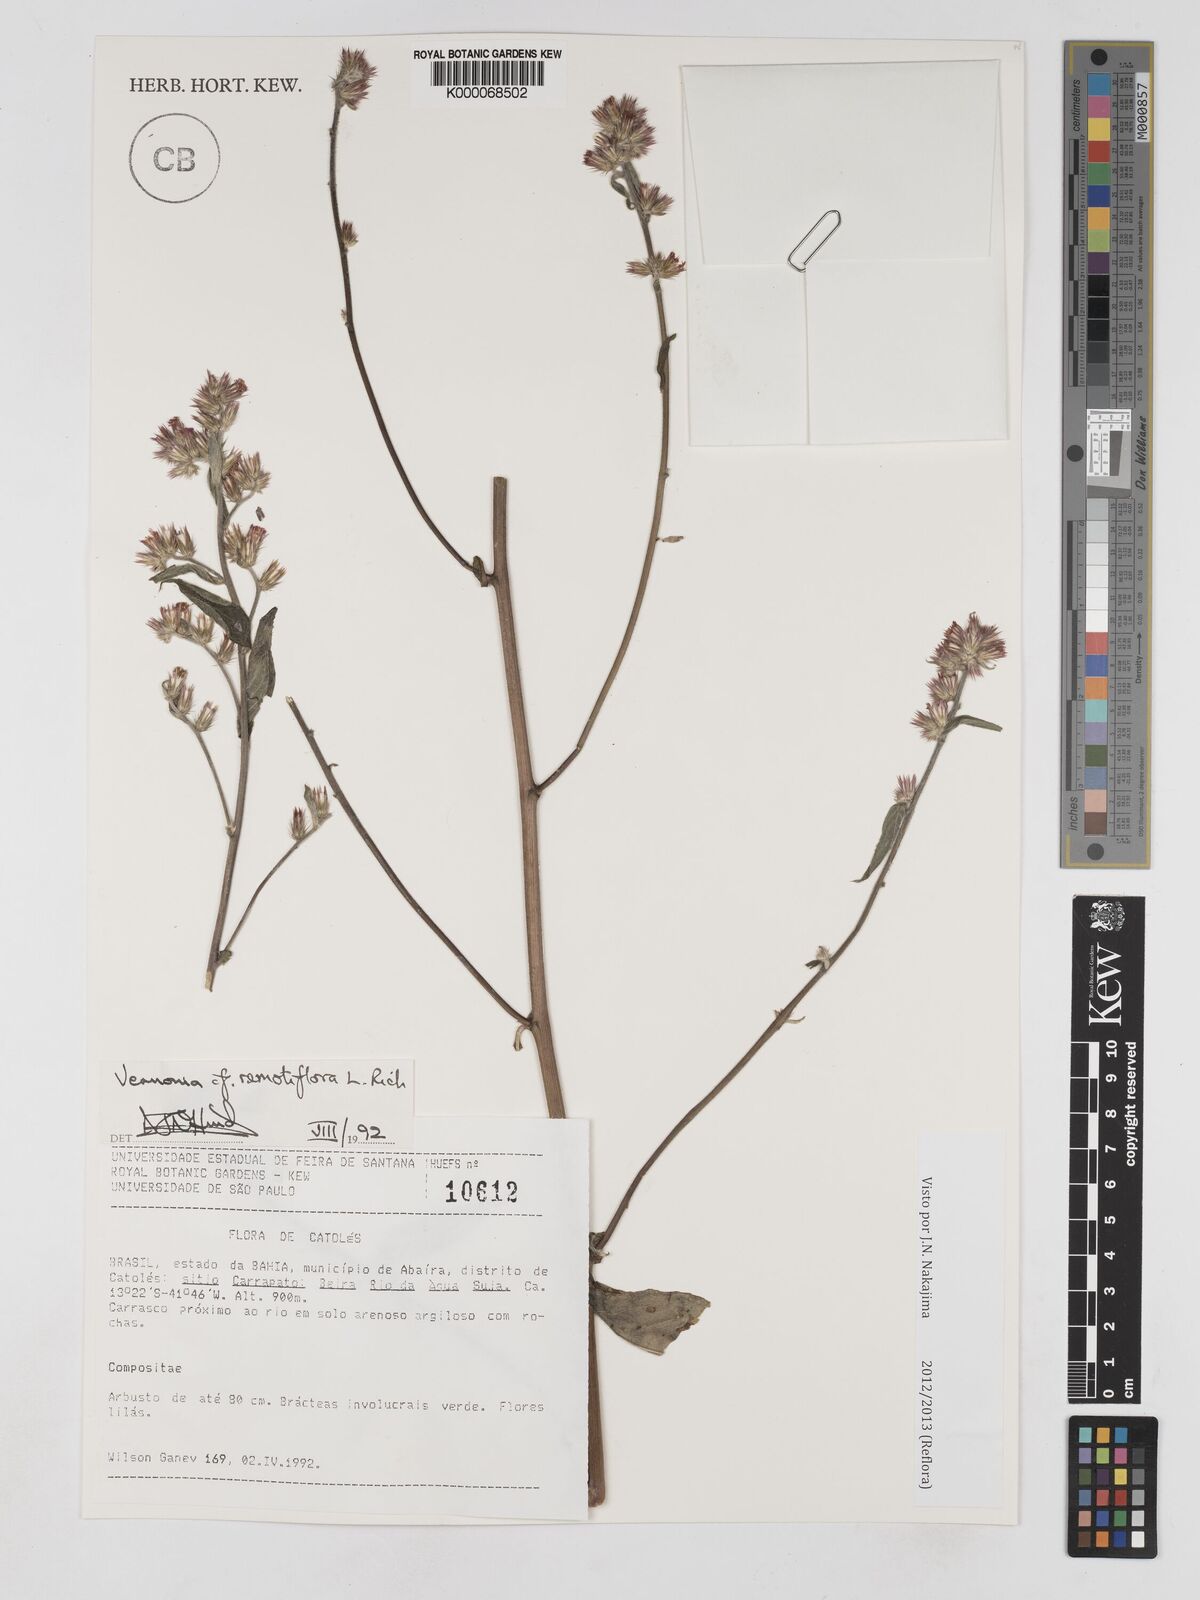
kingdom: Plantae
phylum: Tracheophyta
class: Magnoliopsida
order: Asterales
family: Asteraceae
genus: Lepidaploa
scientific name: Lepidaploa remotiflora
